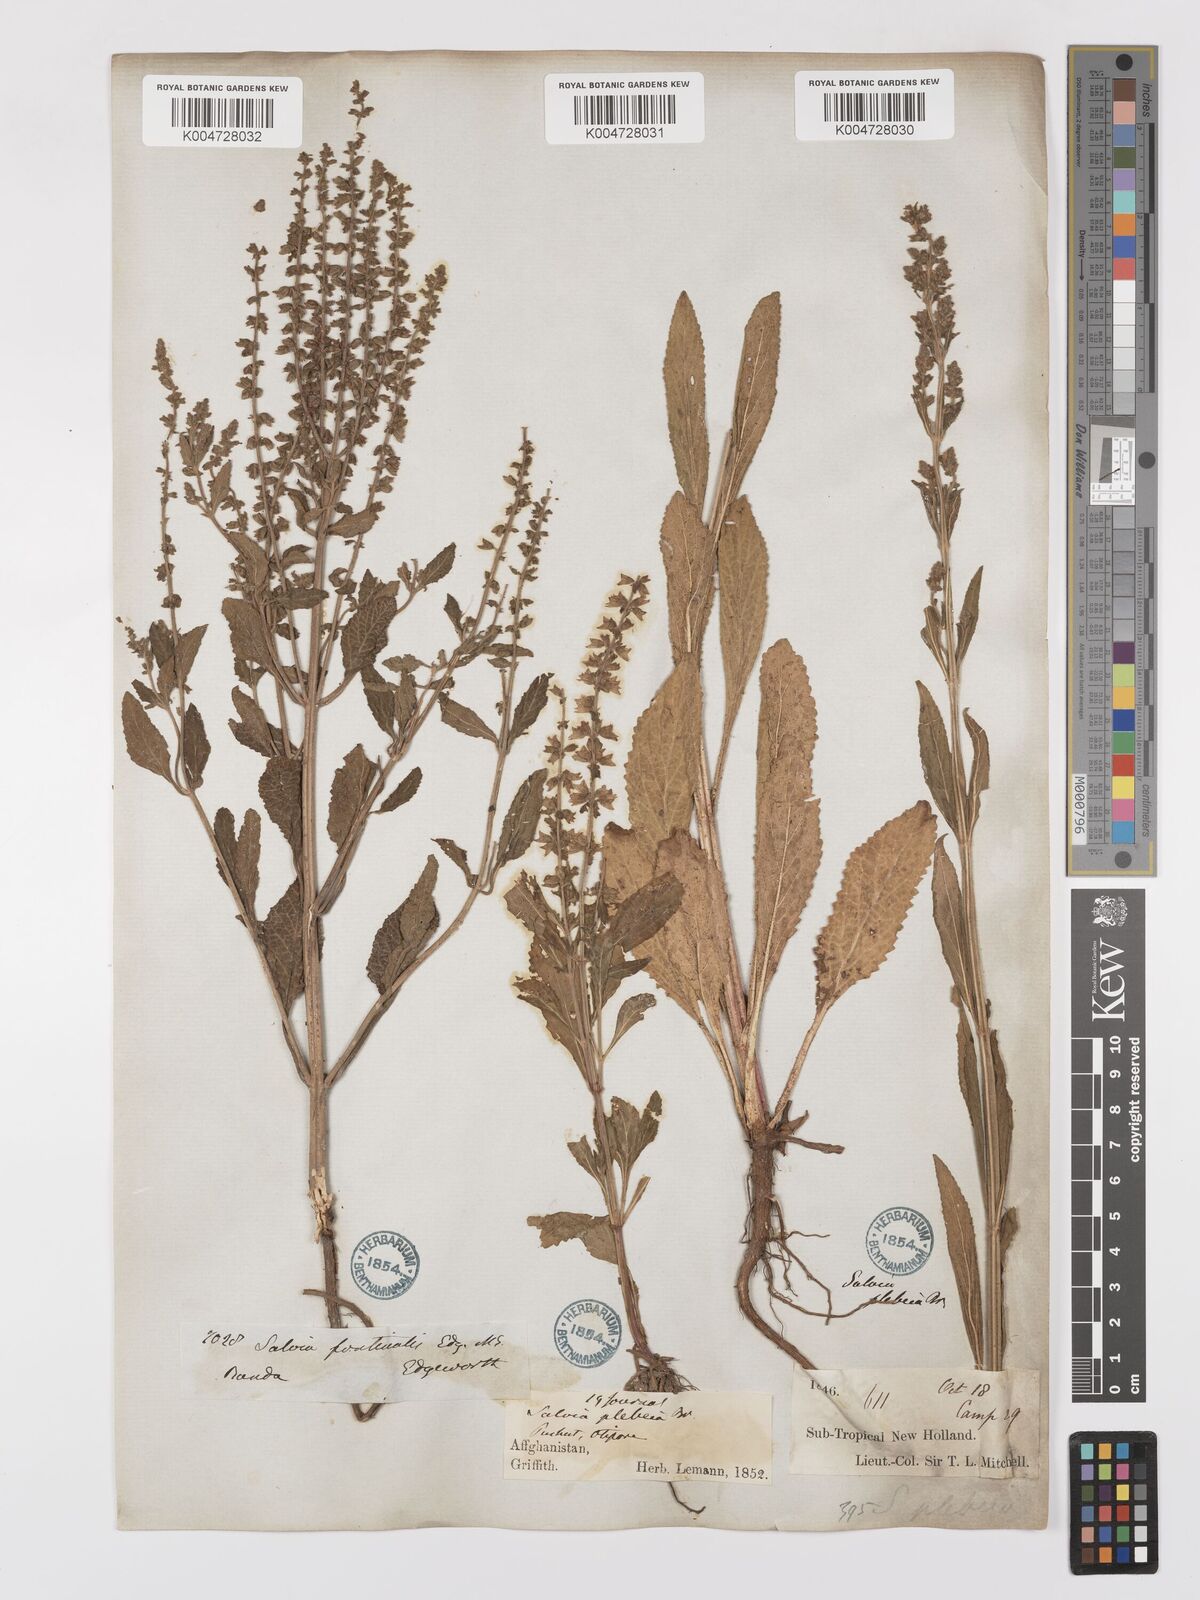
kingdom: Plantae
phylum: Tracheophyta
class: Magnoliopsida
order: Lamiales
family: Lamiaceae
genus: Salvia
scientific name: Salvia plebeia
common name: Australian sage
